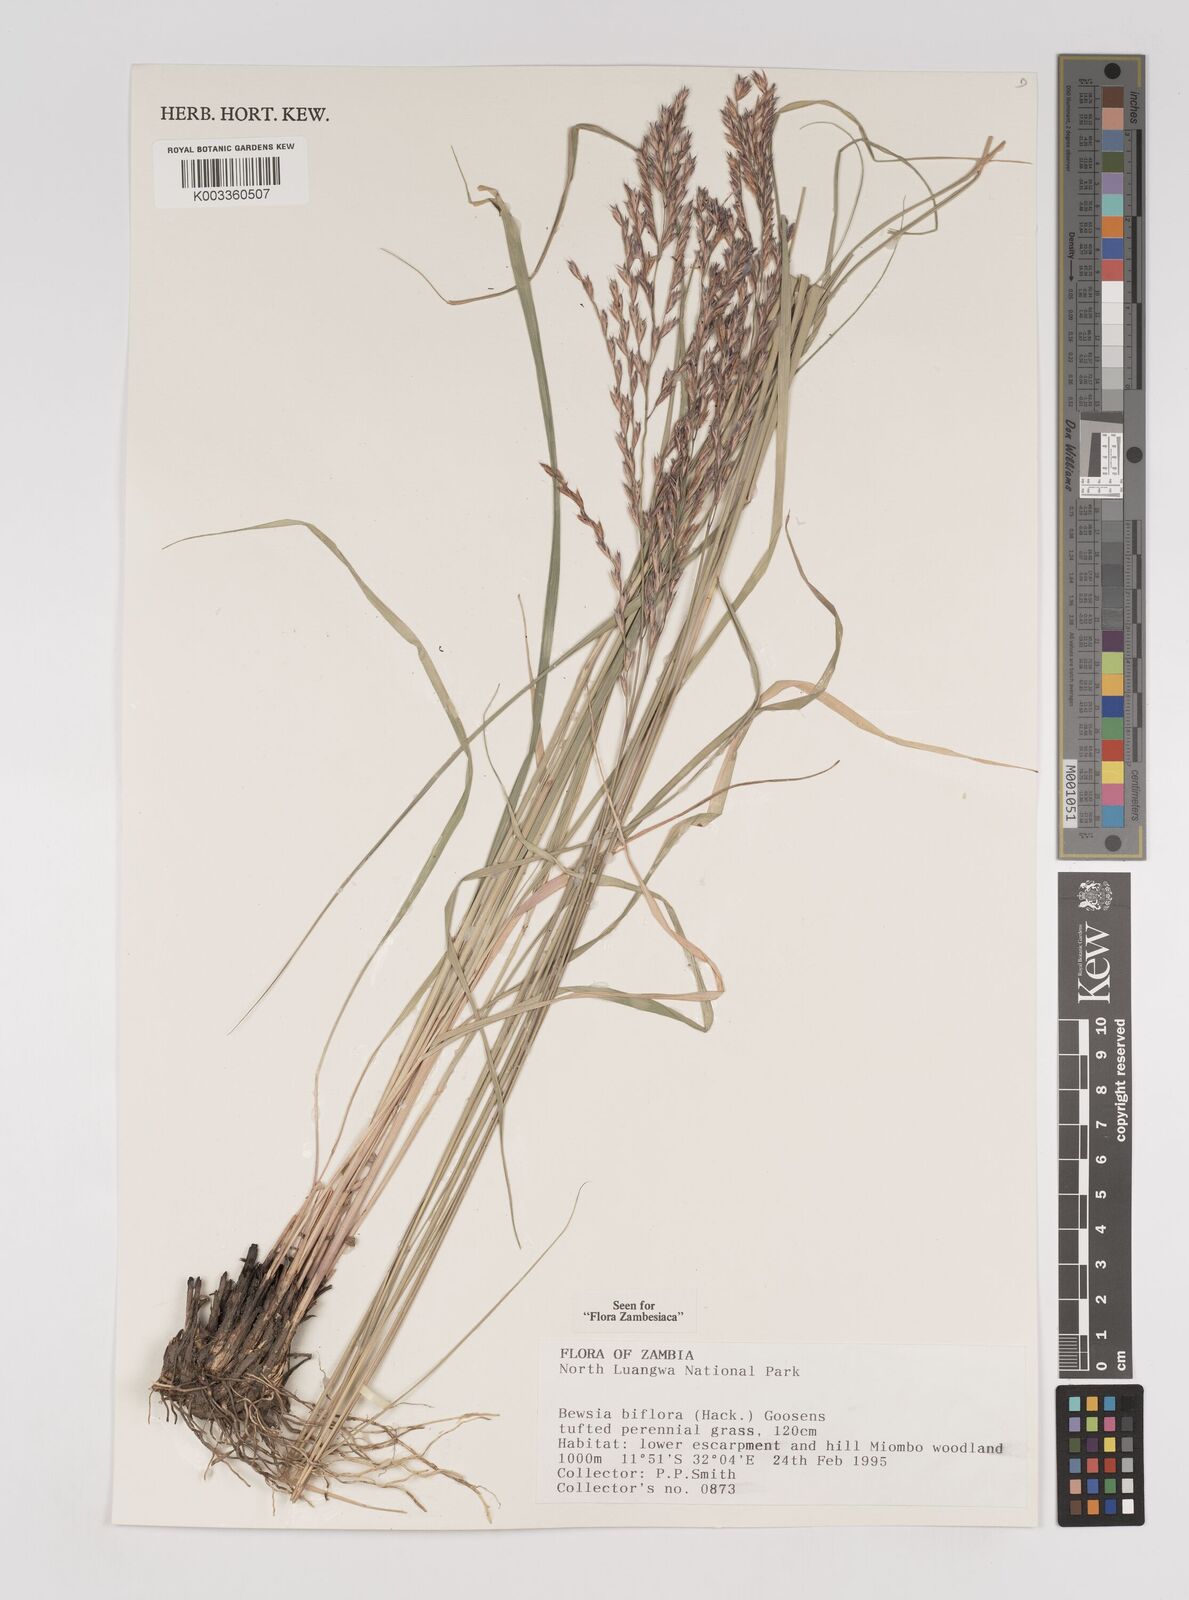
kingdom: Plantae
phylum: Tracheophyta
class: Liliopsida
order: Poales
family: Poaceae
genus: Bewsia
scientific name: Bewsia biflora
